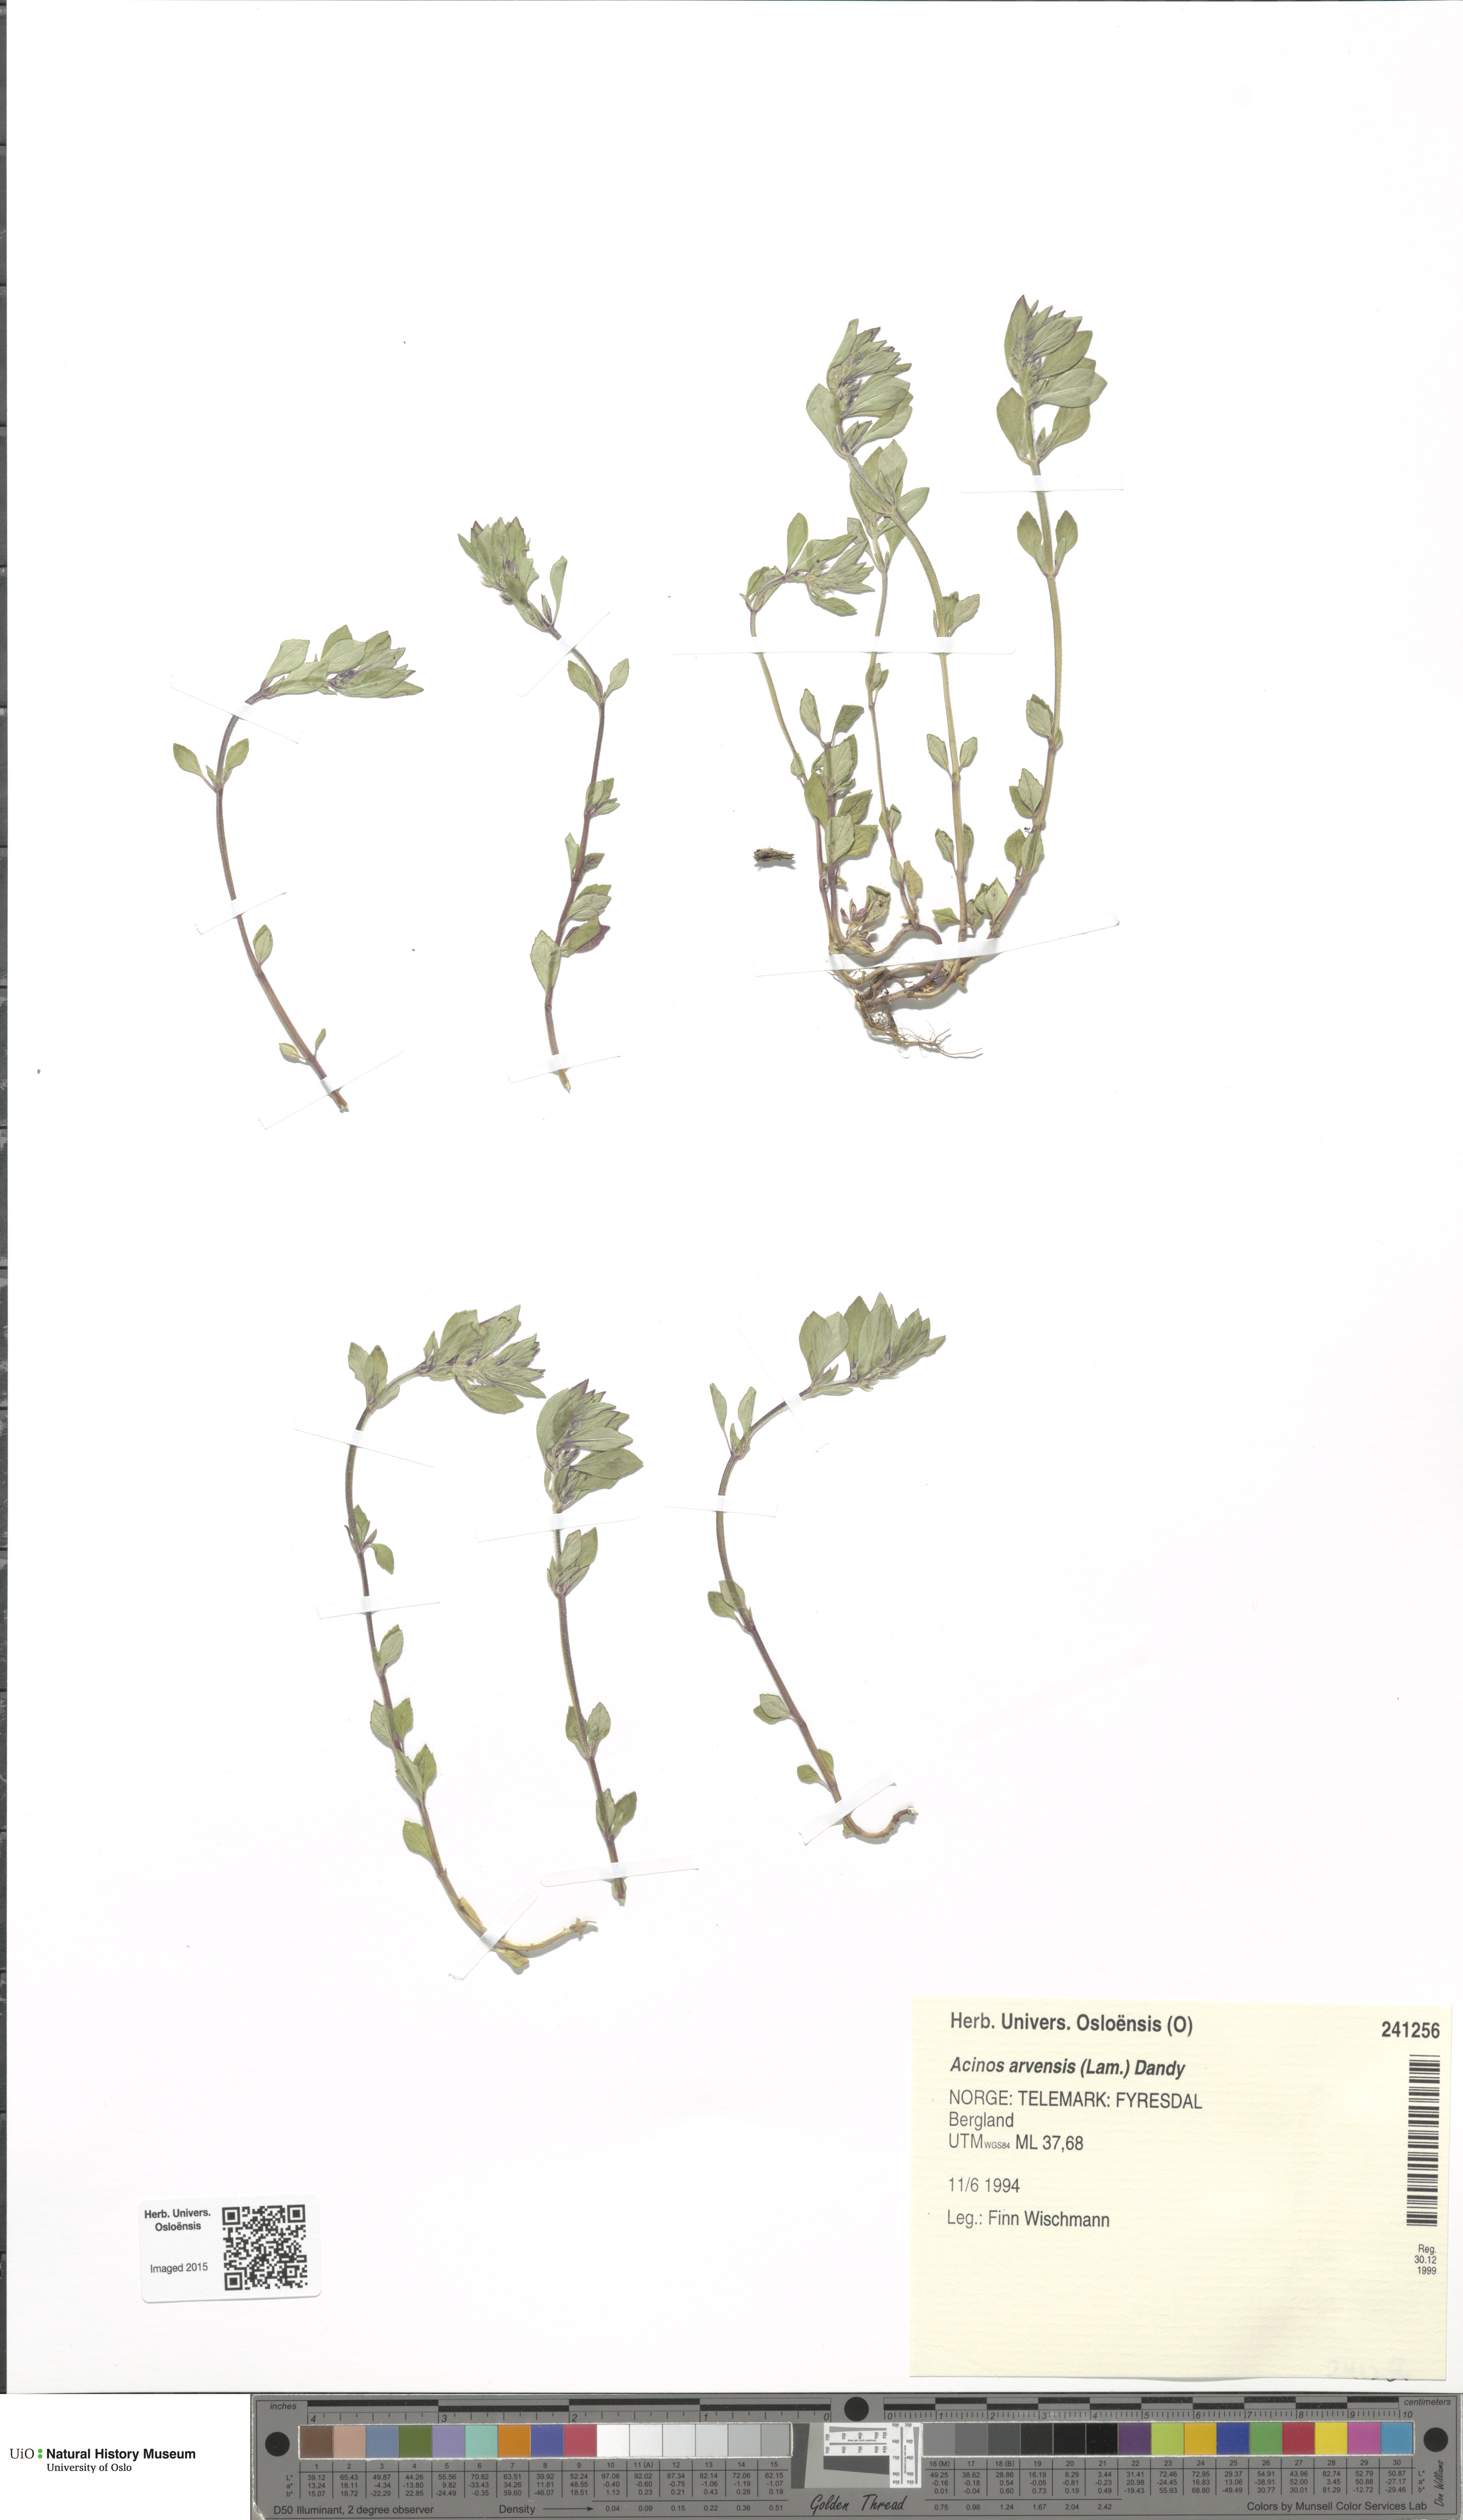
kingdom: Plantae
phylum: Tracheophyta
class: Magnoliopsida
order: Lamiales
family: Lamiaceae
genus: Clinopodium
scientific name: Clinopodium acinos
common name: Basil thyme
